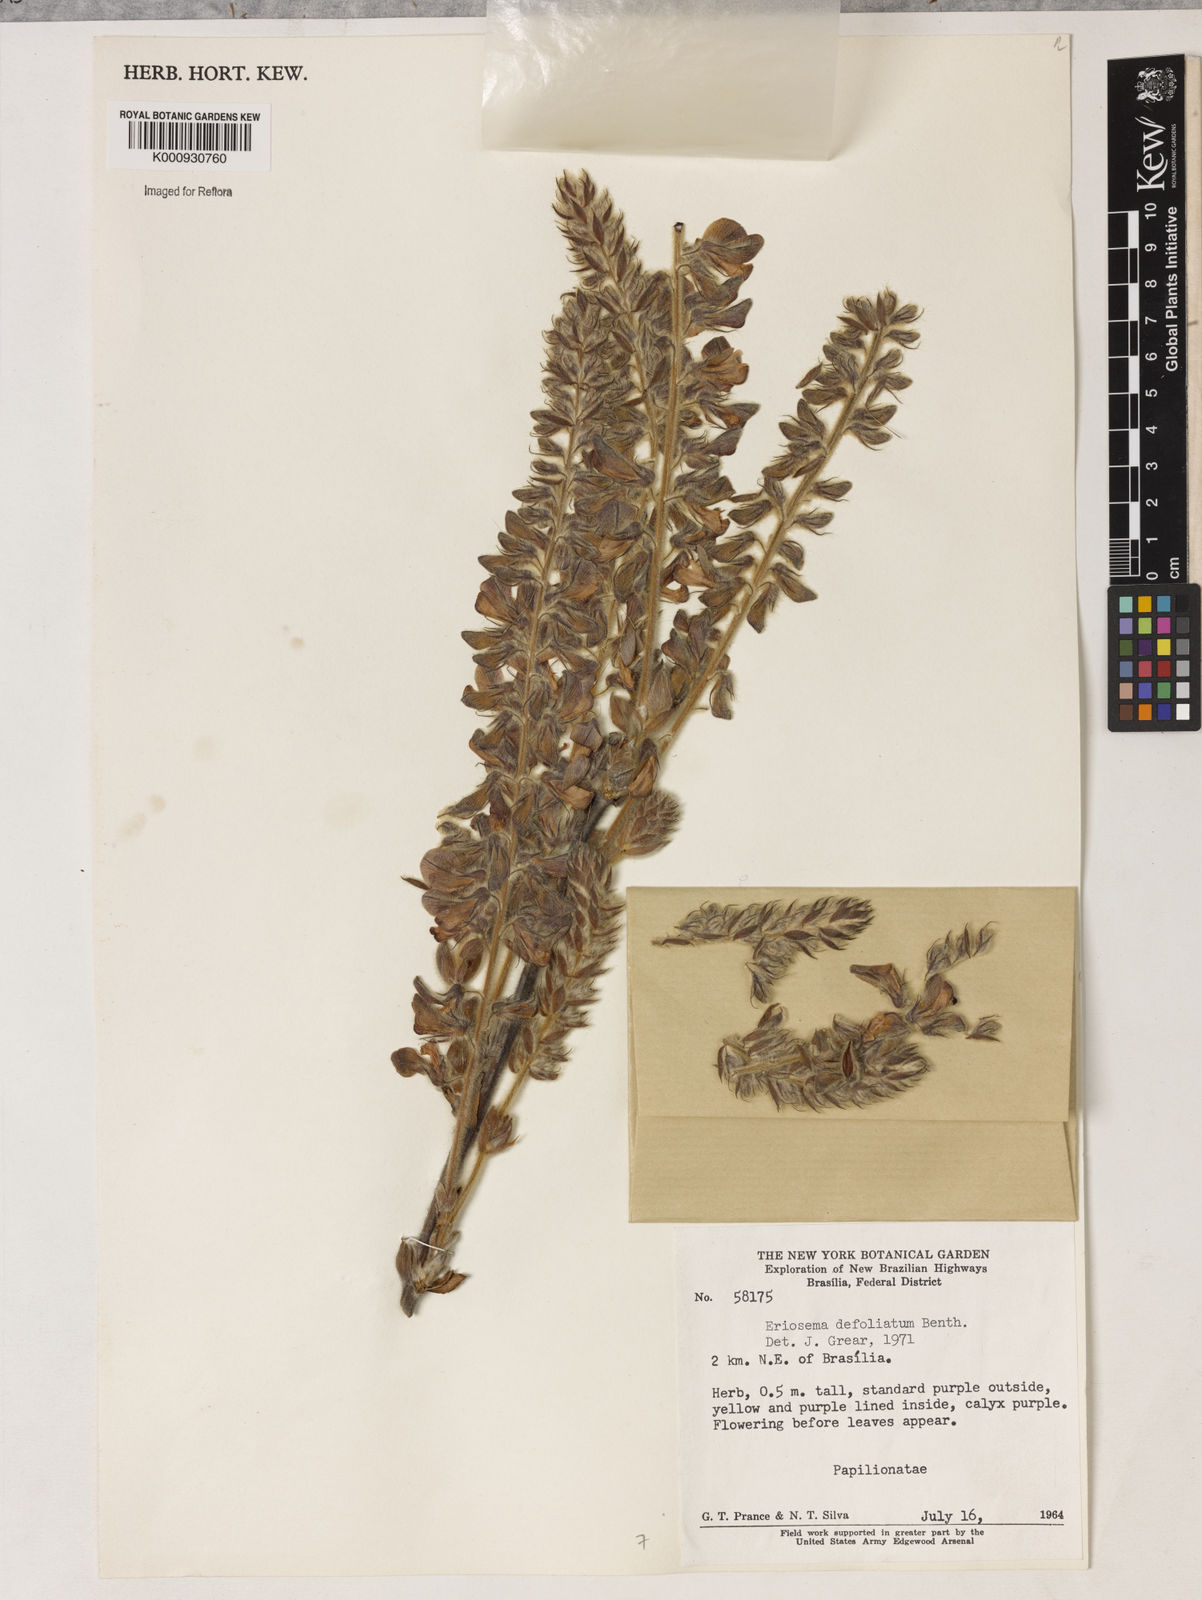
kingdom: Plantae
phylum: Tracheophyta
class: Magnoliopsida
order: Fabales
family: Fabaceae
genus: Eriosema
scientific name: Eriosema defoliatum
